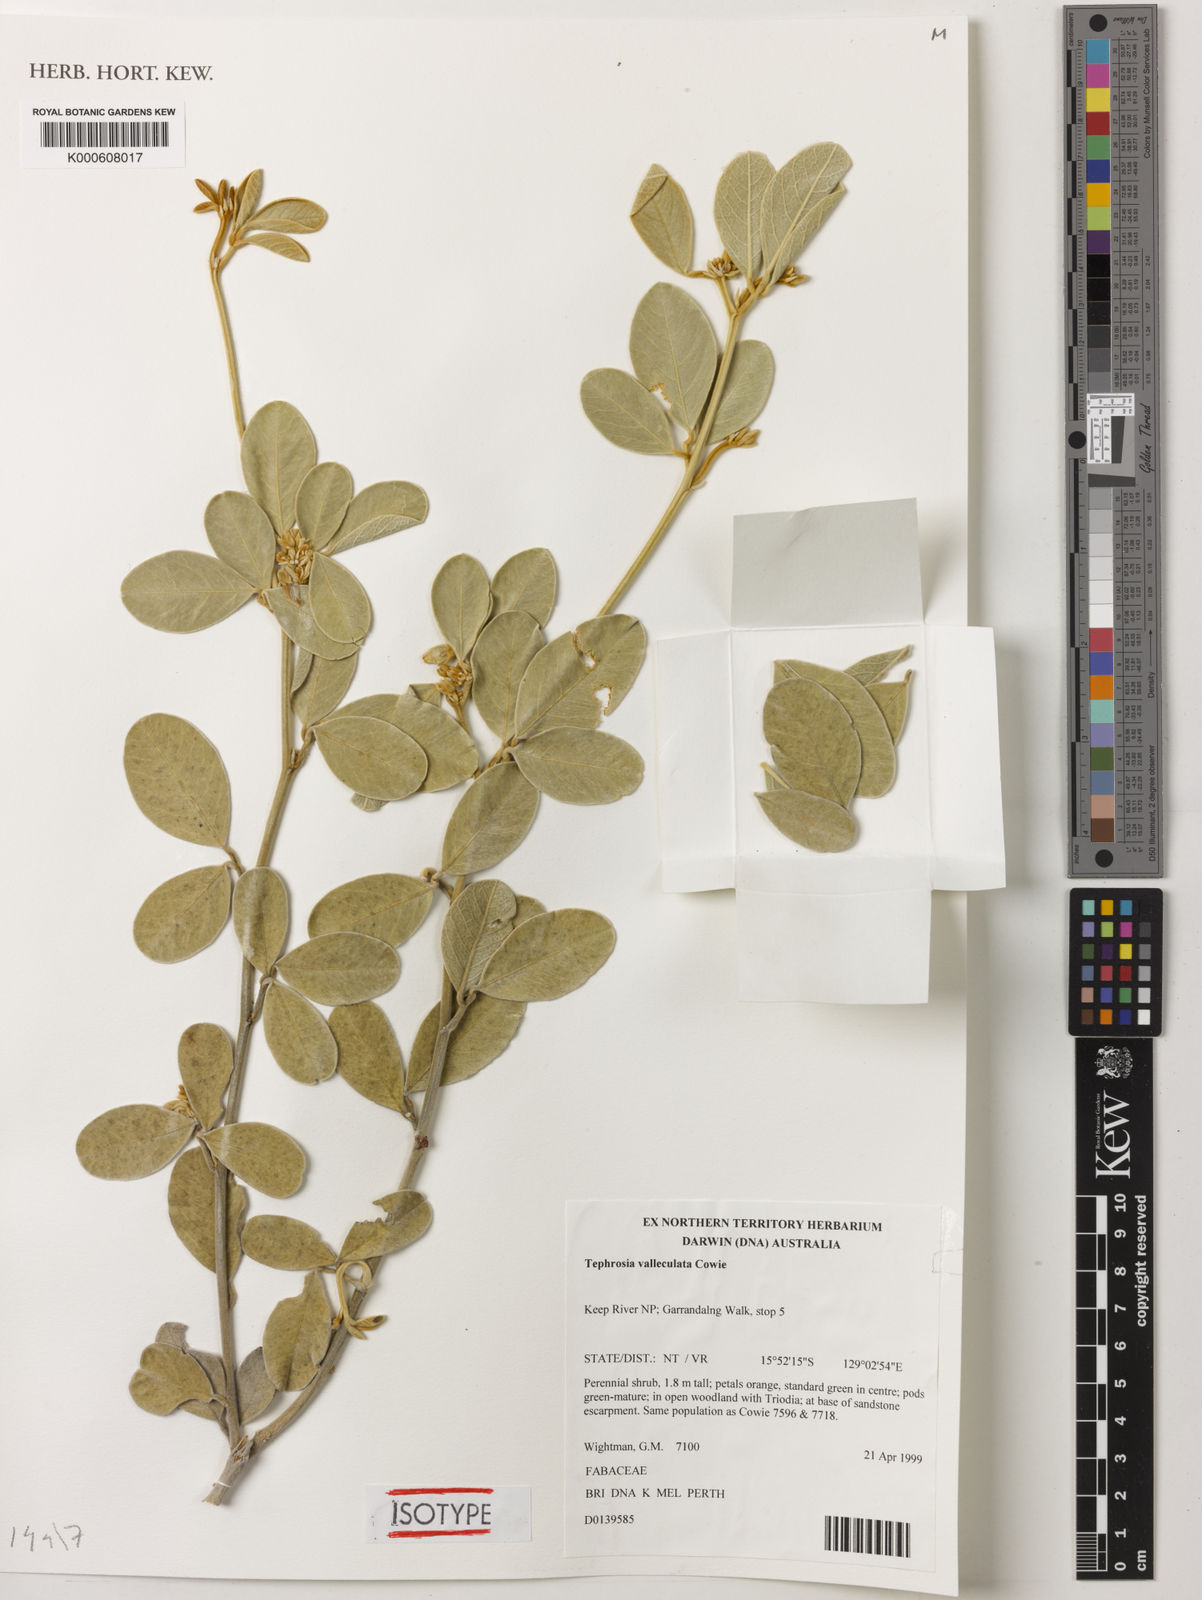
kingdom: Plantae
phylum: Tracheophyta
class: Magnoliopsida
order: Fabales
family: Fabaceae
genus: Tephrosia
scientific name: Tephrosia valleculata
